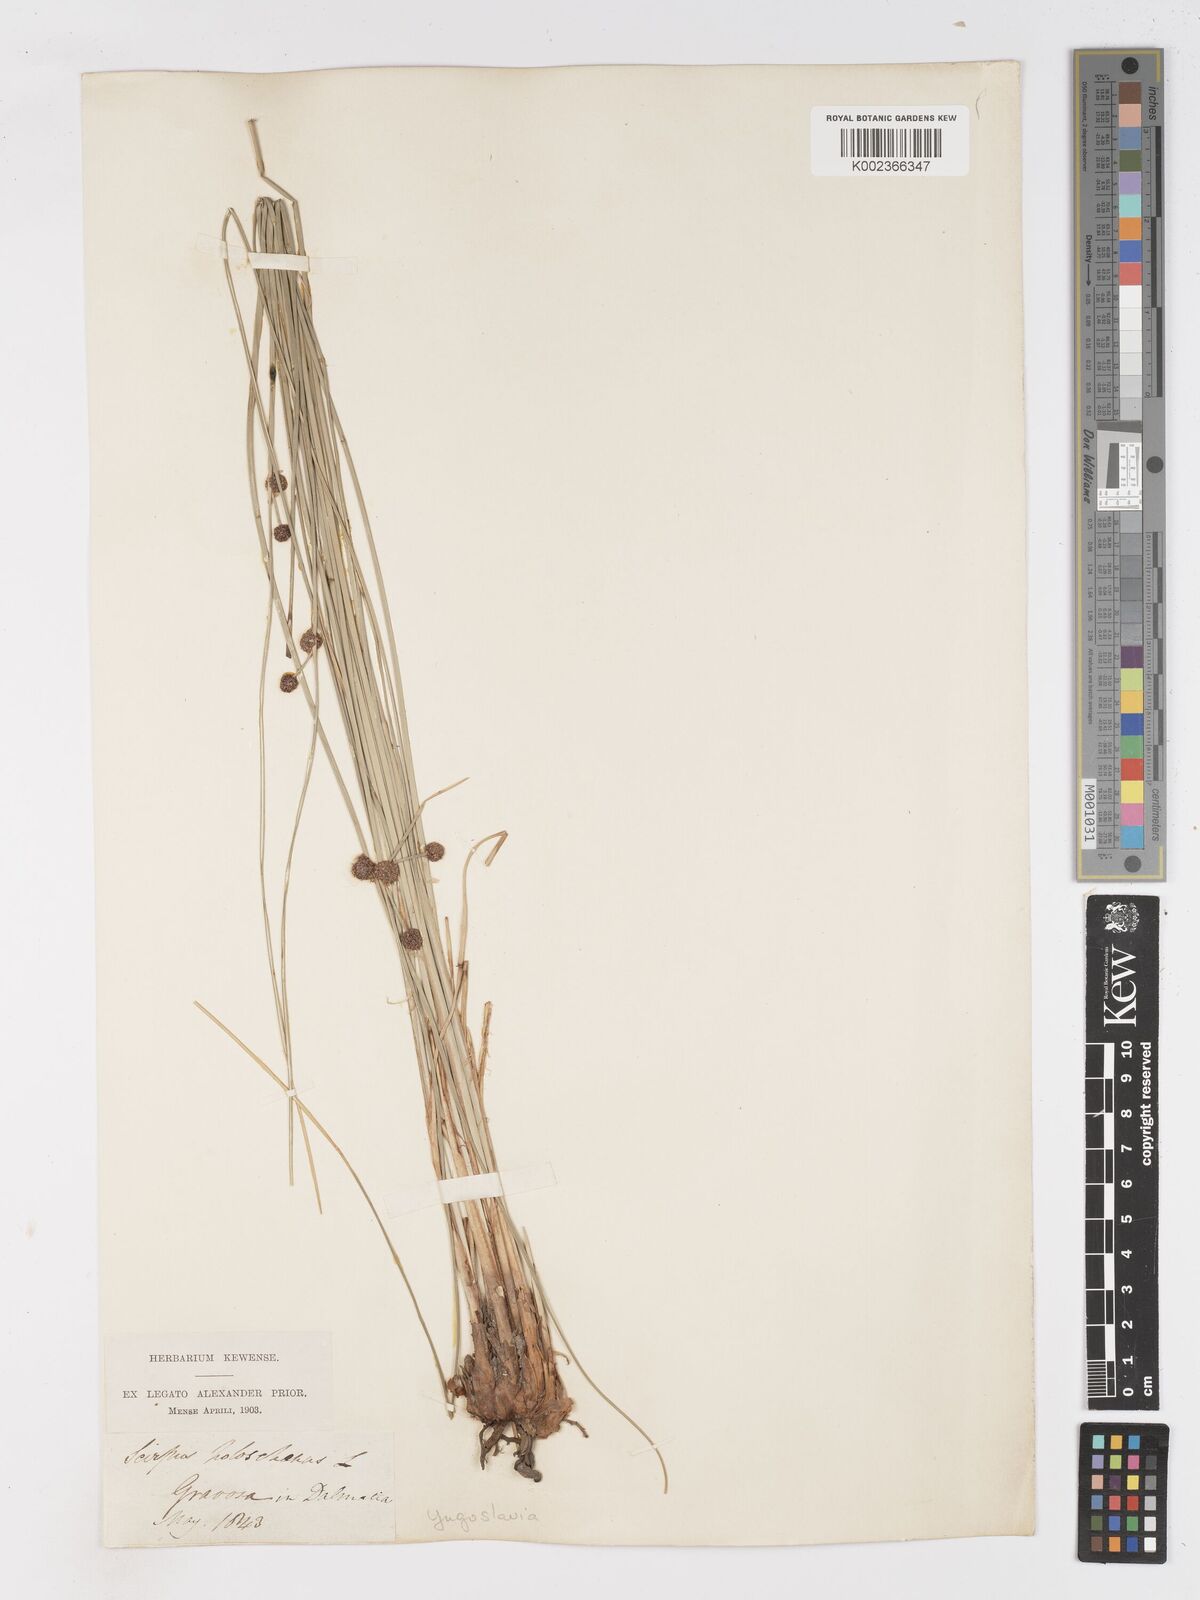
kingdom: Plantae
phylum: Tracheophyta
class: Liliopsida
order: Poales
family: Cyperaceae
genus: Scirpoides
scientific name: Scirpoides holoschoenus
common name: Round-headed club-rush
